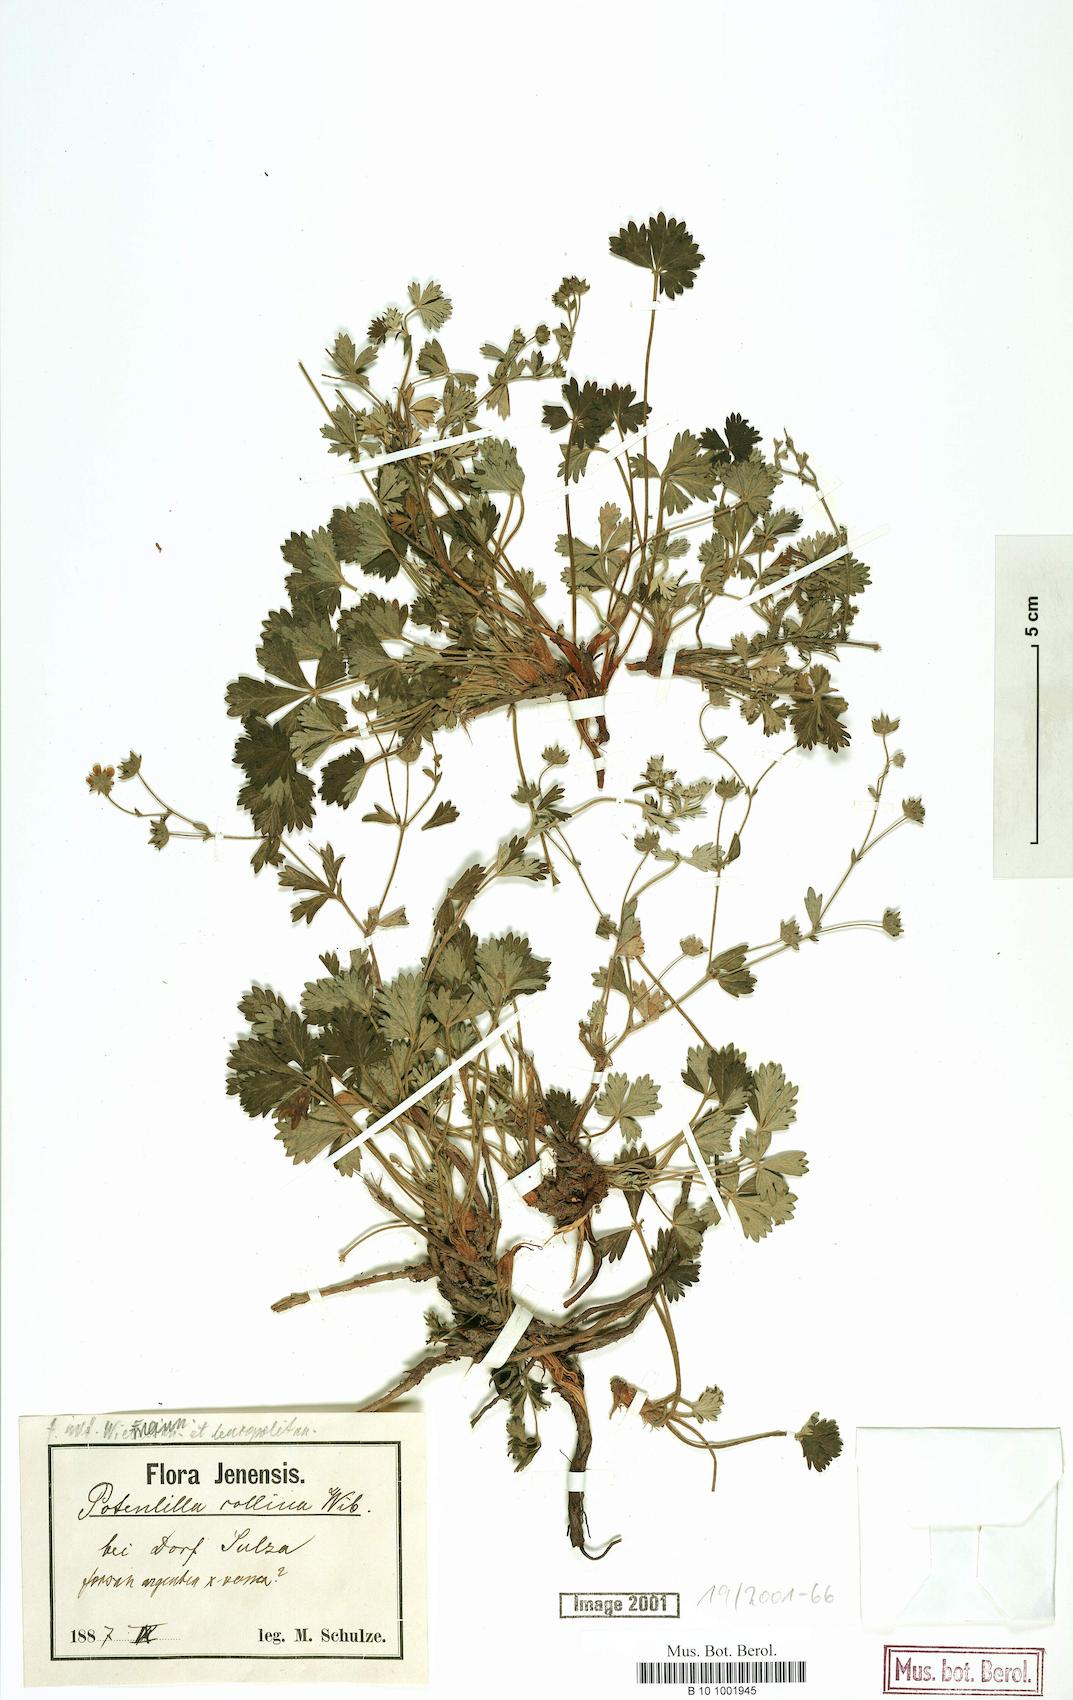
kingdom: Plantae
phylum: Tracheophyta
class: Magnoliopsida
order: Rosales
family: Rosaceae
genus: Potentilla
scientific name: Potentilla collina
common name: Palmleaf cinquefoil
